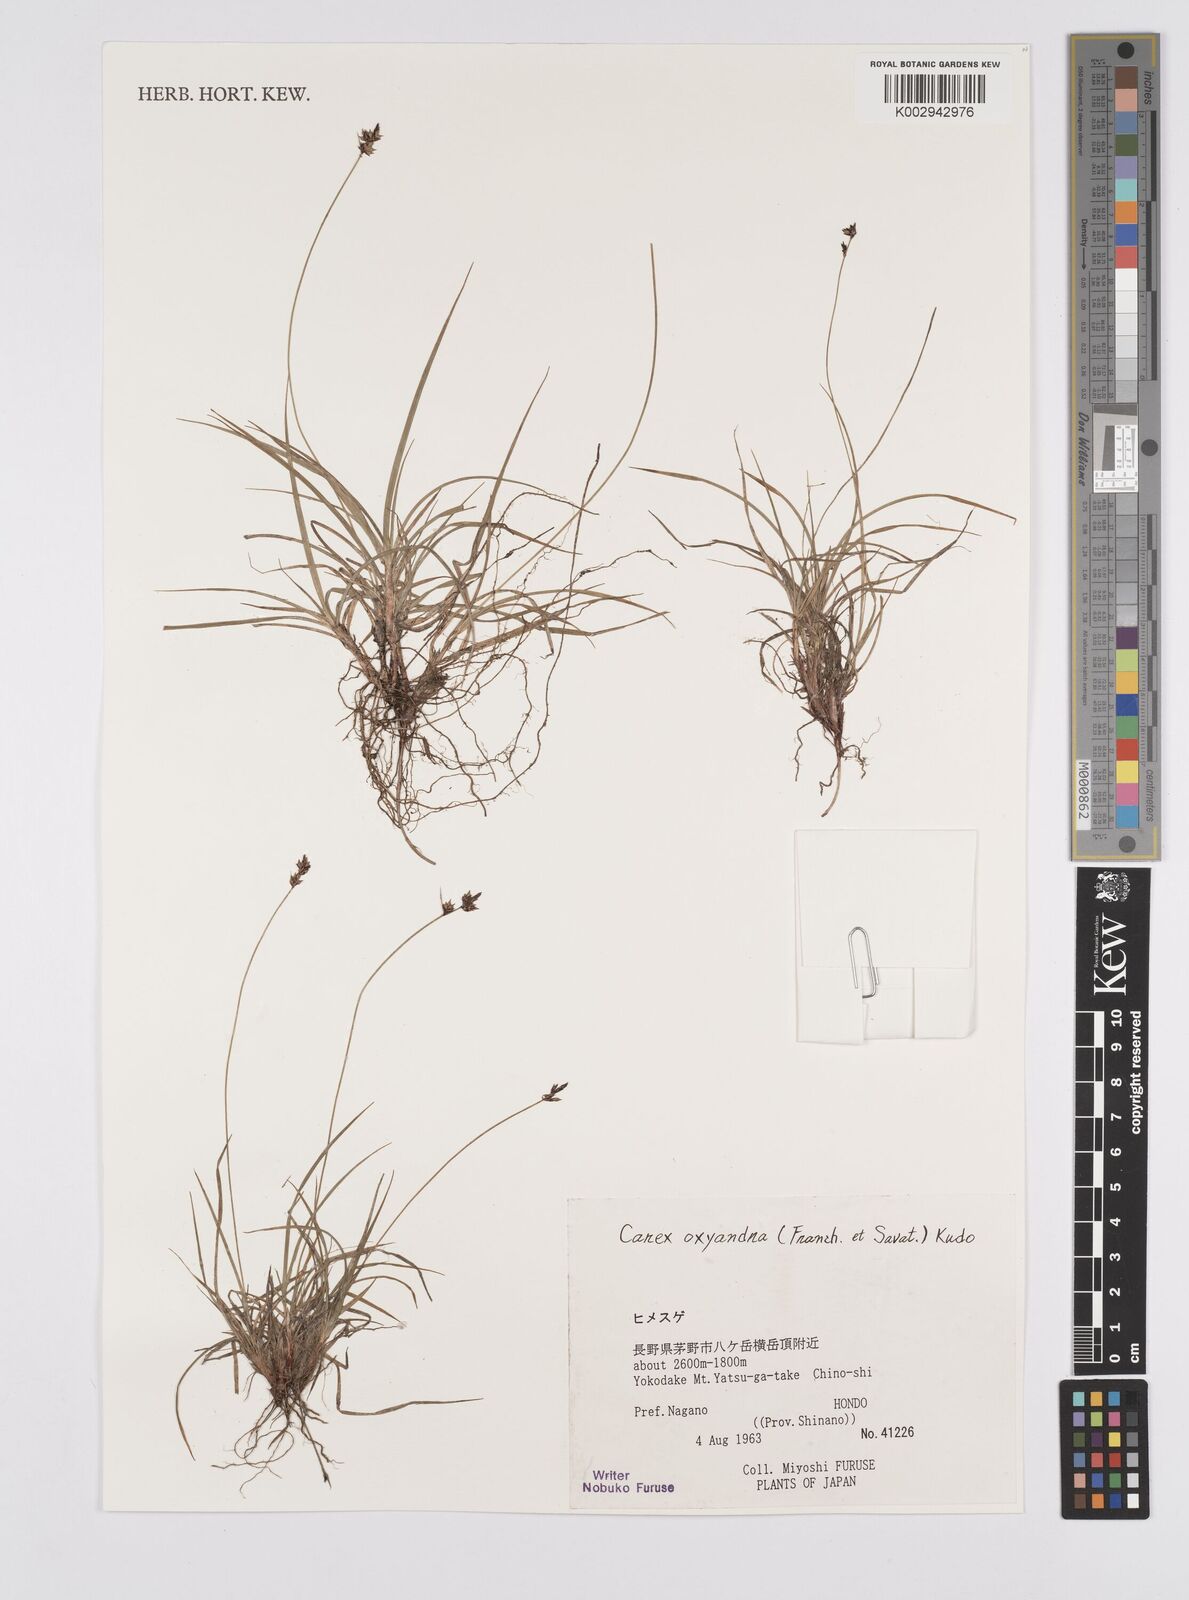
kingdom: Plantae
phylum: Tracheophyta
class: Liliopsida
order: Poales
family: Cyperaceae
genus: Carex
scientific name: Carex oxyandra
